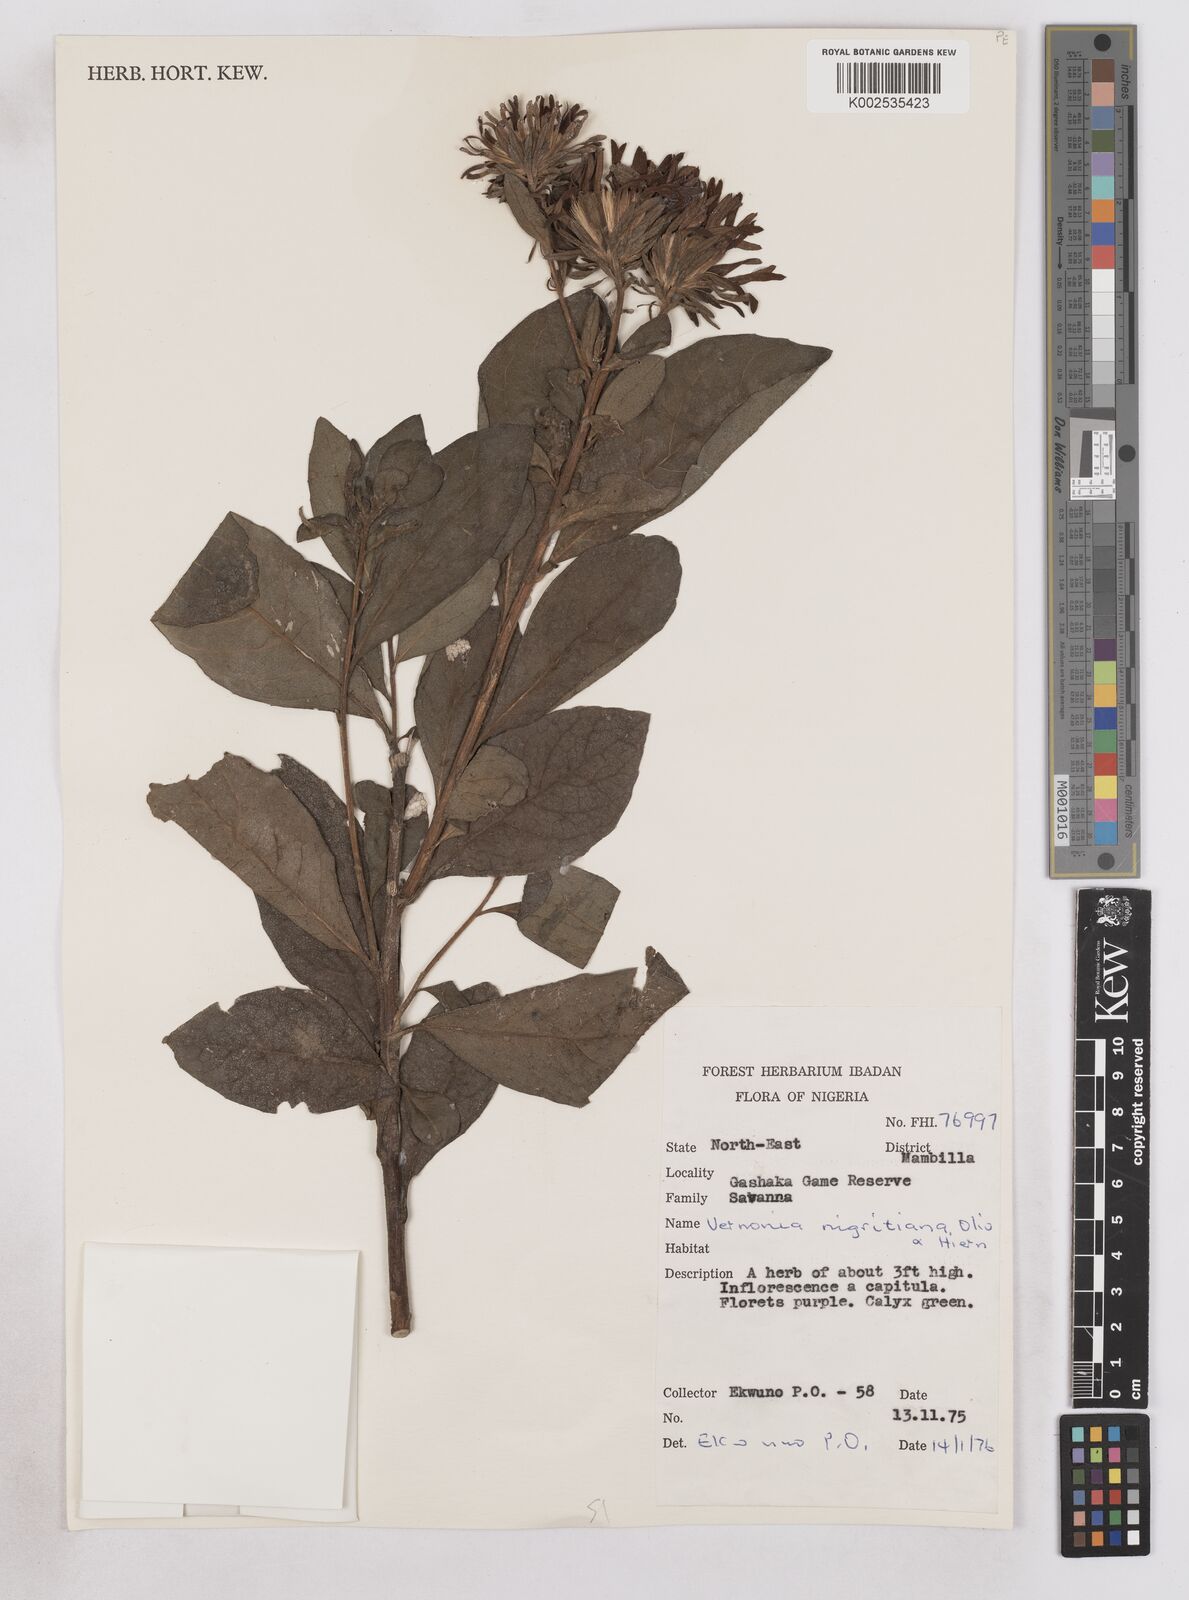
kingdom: Plantae
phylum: Tracheophyta
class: Magnoliopsida
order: Asterales
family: Asteraceae
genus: Linzia
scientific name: Linzia nigritiana
